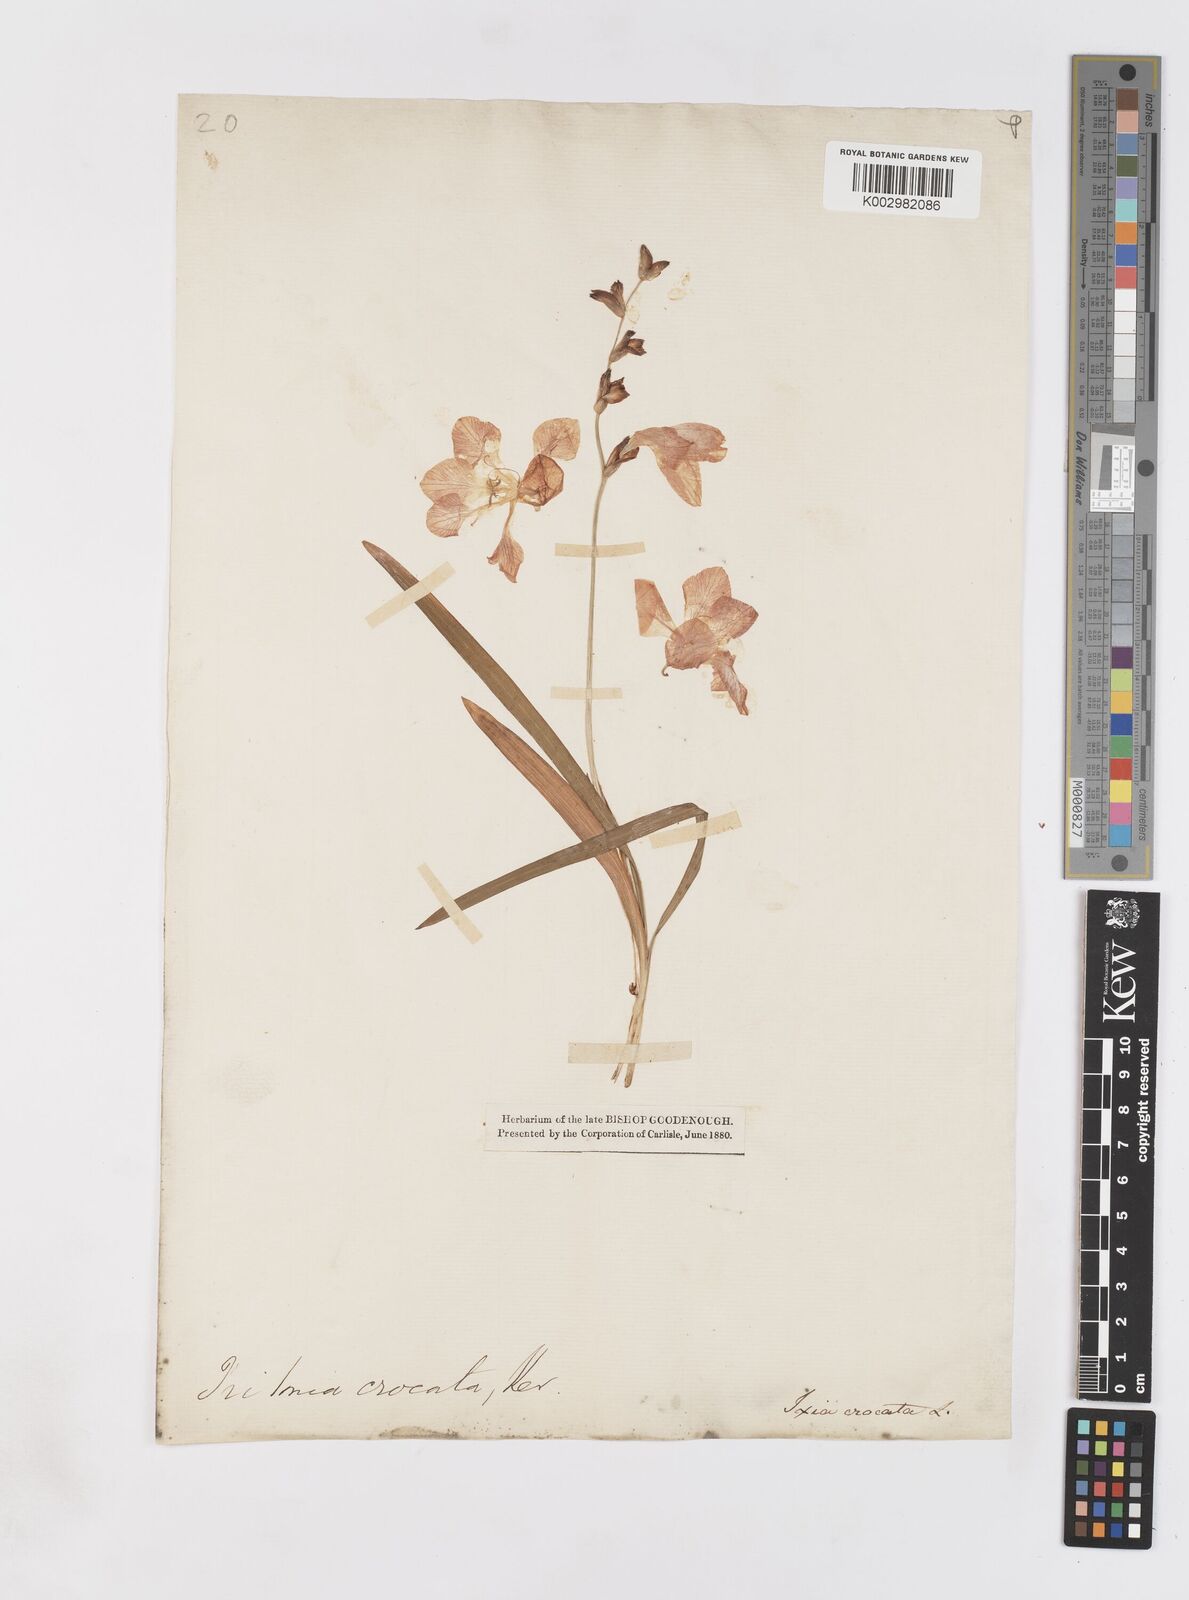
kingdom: Plantae
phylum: Tracheophyta
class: Liliopsida
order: Asparagales
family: Iridaceae
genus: Tritonia
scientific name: Tritonia crocata
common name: Flame-freesia
